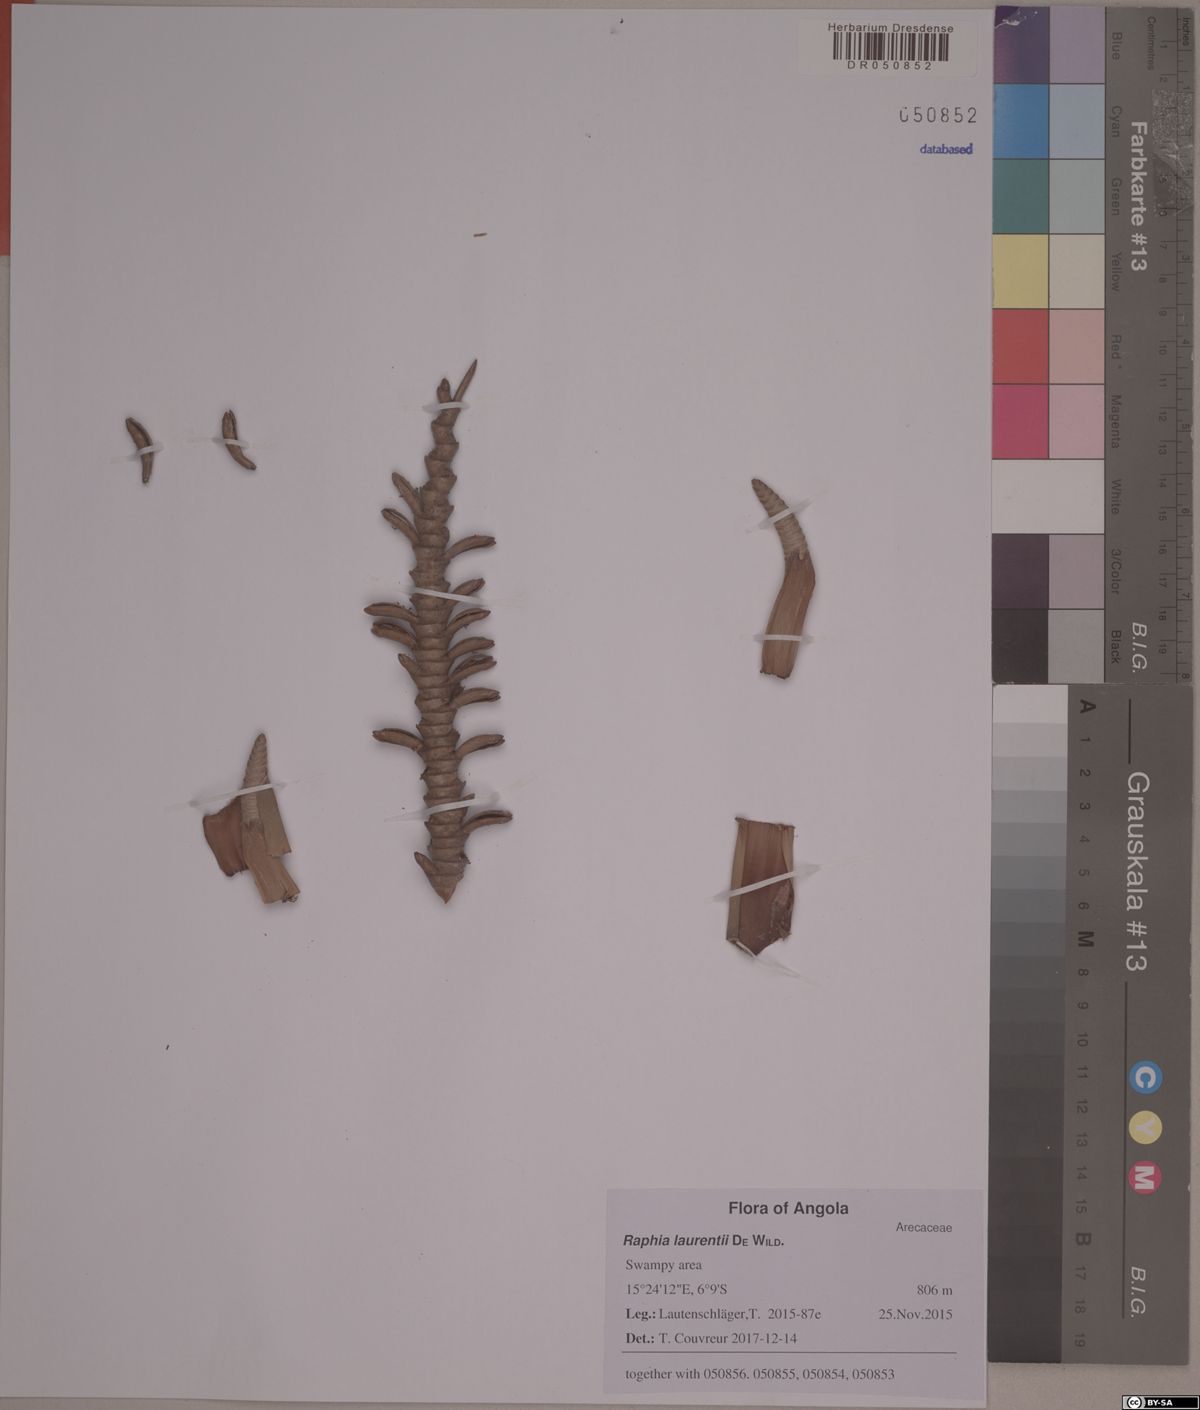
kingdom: Plantae
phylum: Tracheophyta
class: Liliopsida
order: Arecales
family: Arecaceae
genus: Raphia
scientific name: Raphia laurentii
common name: Raphia palm
